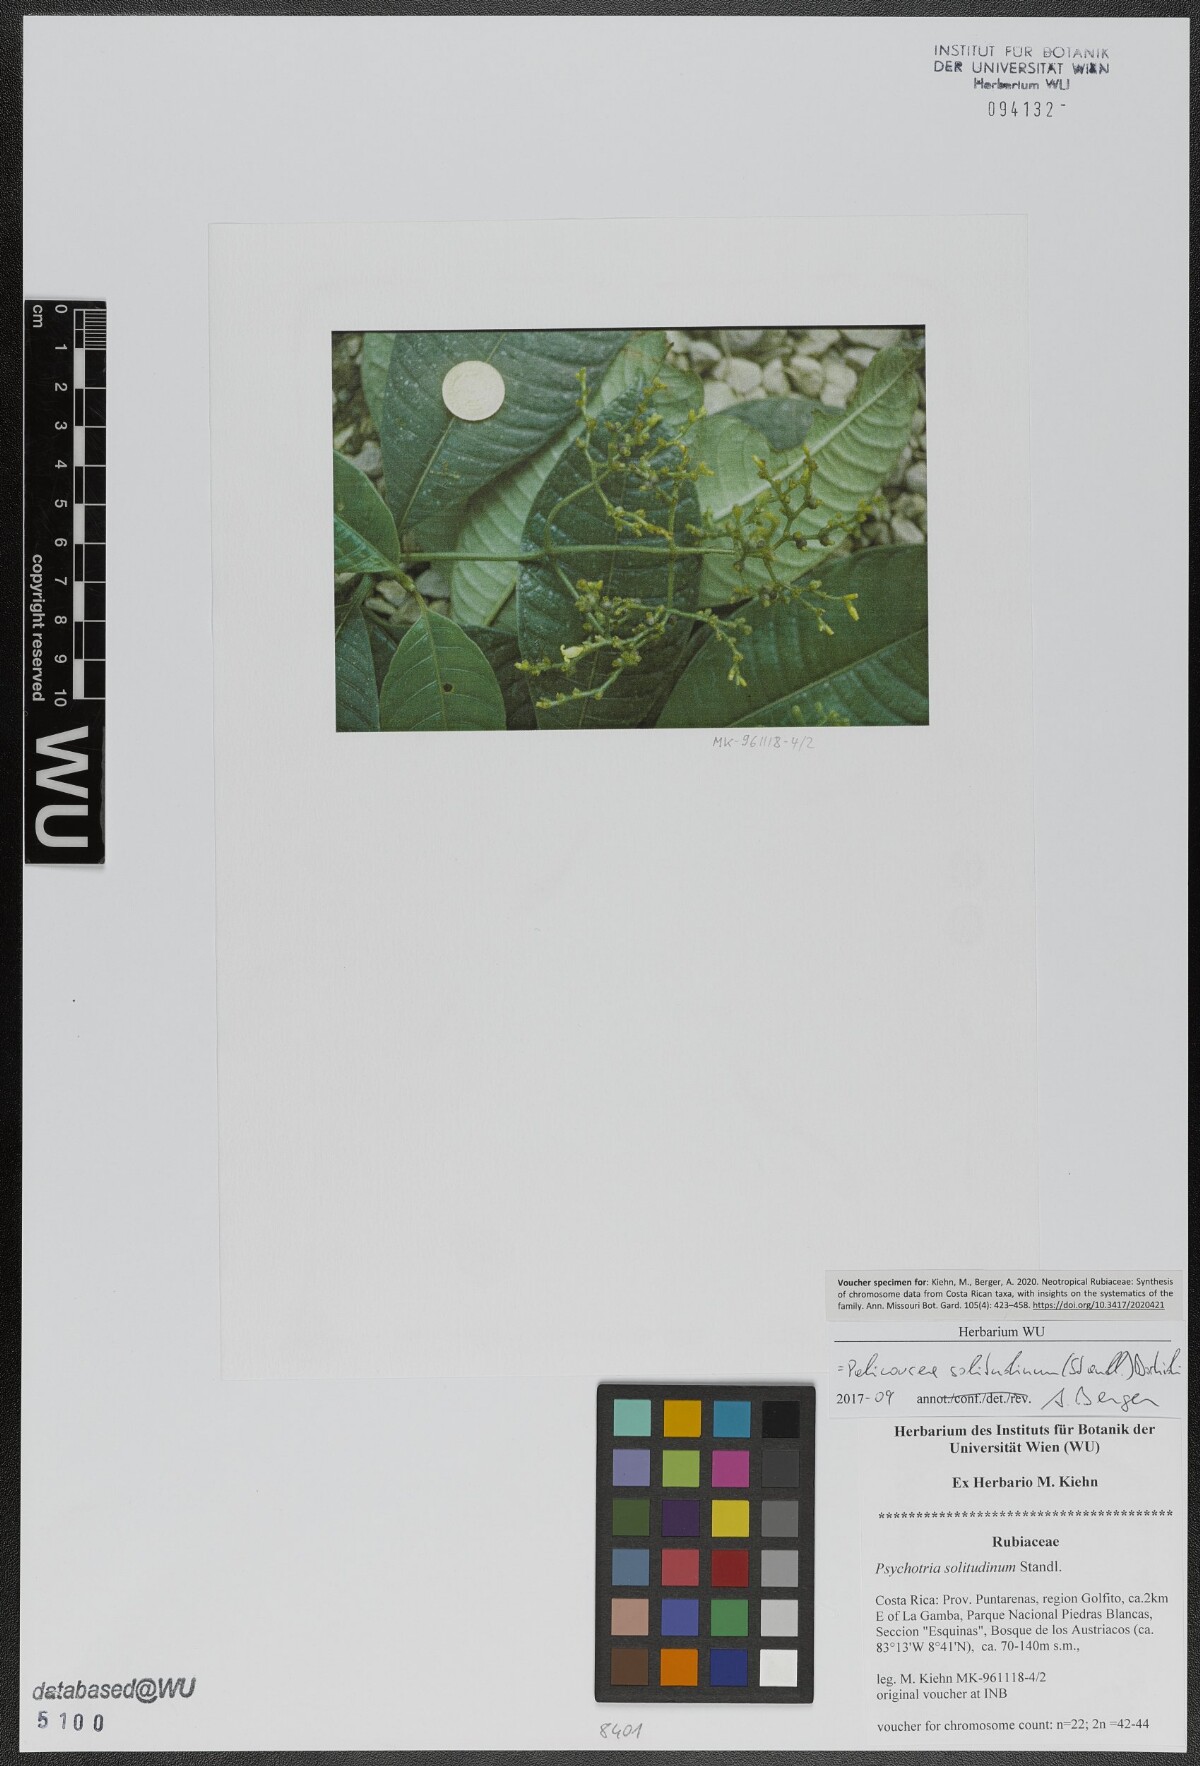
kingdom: Plantae
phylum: Tracheophyta
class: Magnoliopsida
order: Gentianales
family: Rubiaceae
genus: Palicourea
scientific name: Palicourea solitudinum
